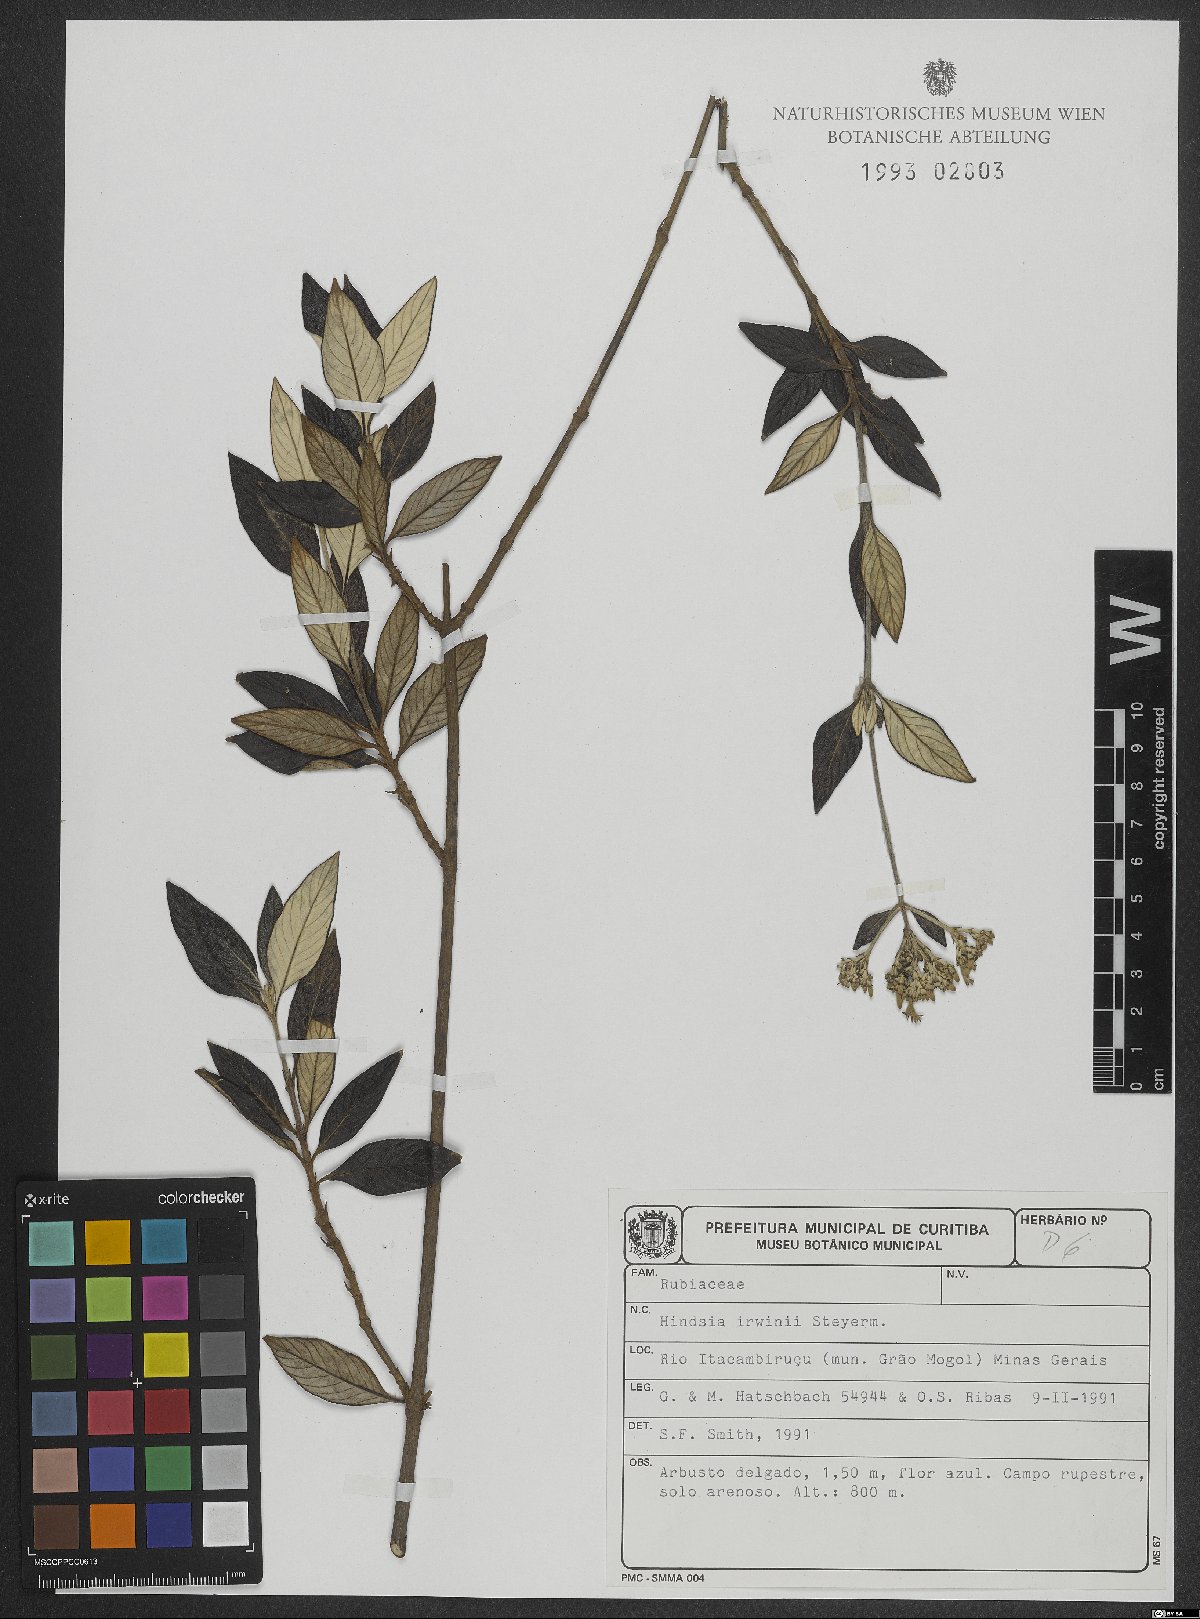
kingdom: Plantae
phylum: Tracheophyta
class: Magnoliopsida
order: Gentianales
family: Rubiaceae
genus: Hindsia
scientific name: Hindsia irwinii
